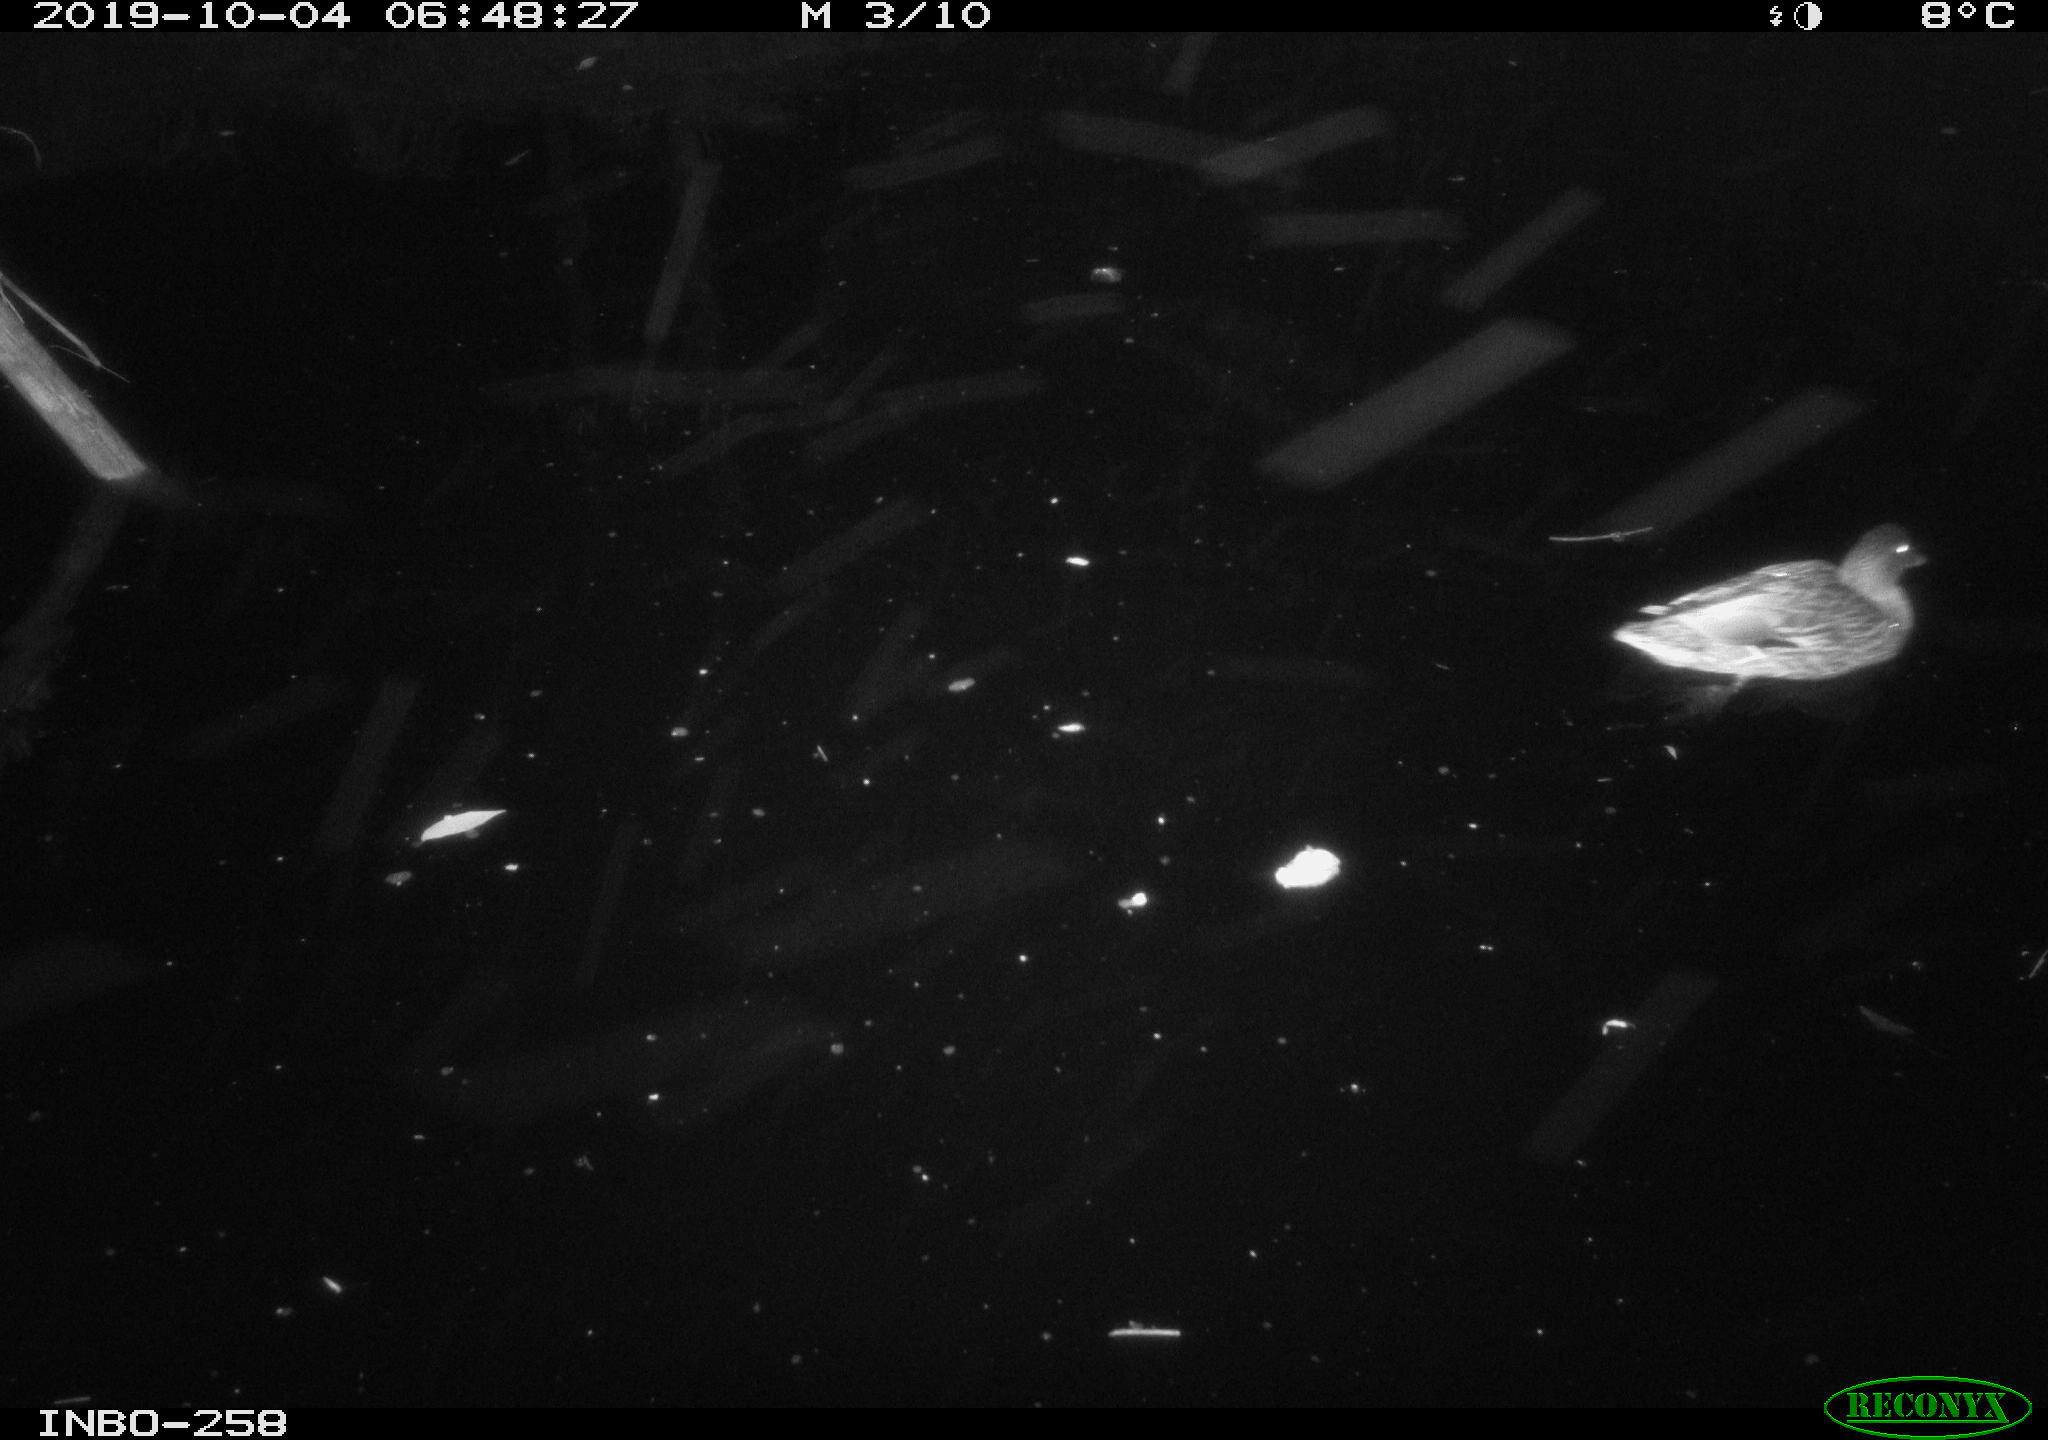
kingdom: Animalia
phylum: Chordata
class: Aves
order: Anseriformes
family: Anatidae
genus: Anas
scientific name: Anas platyrhynchos
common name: Mallard
